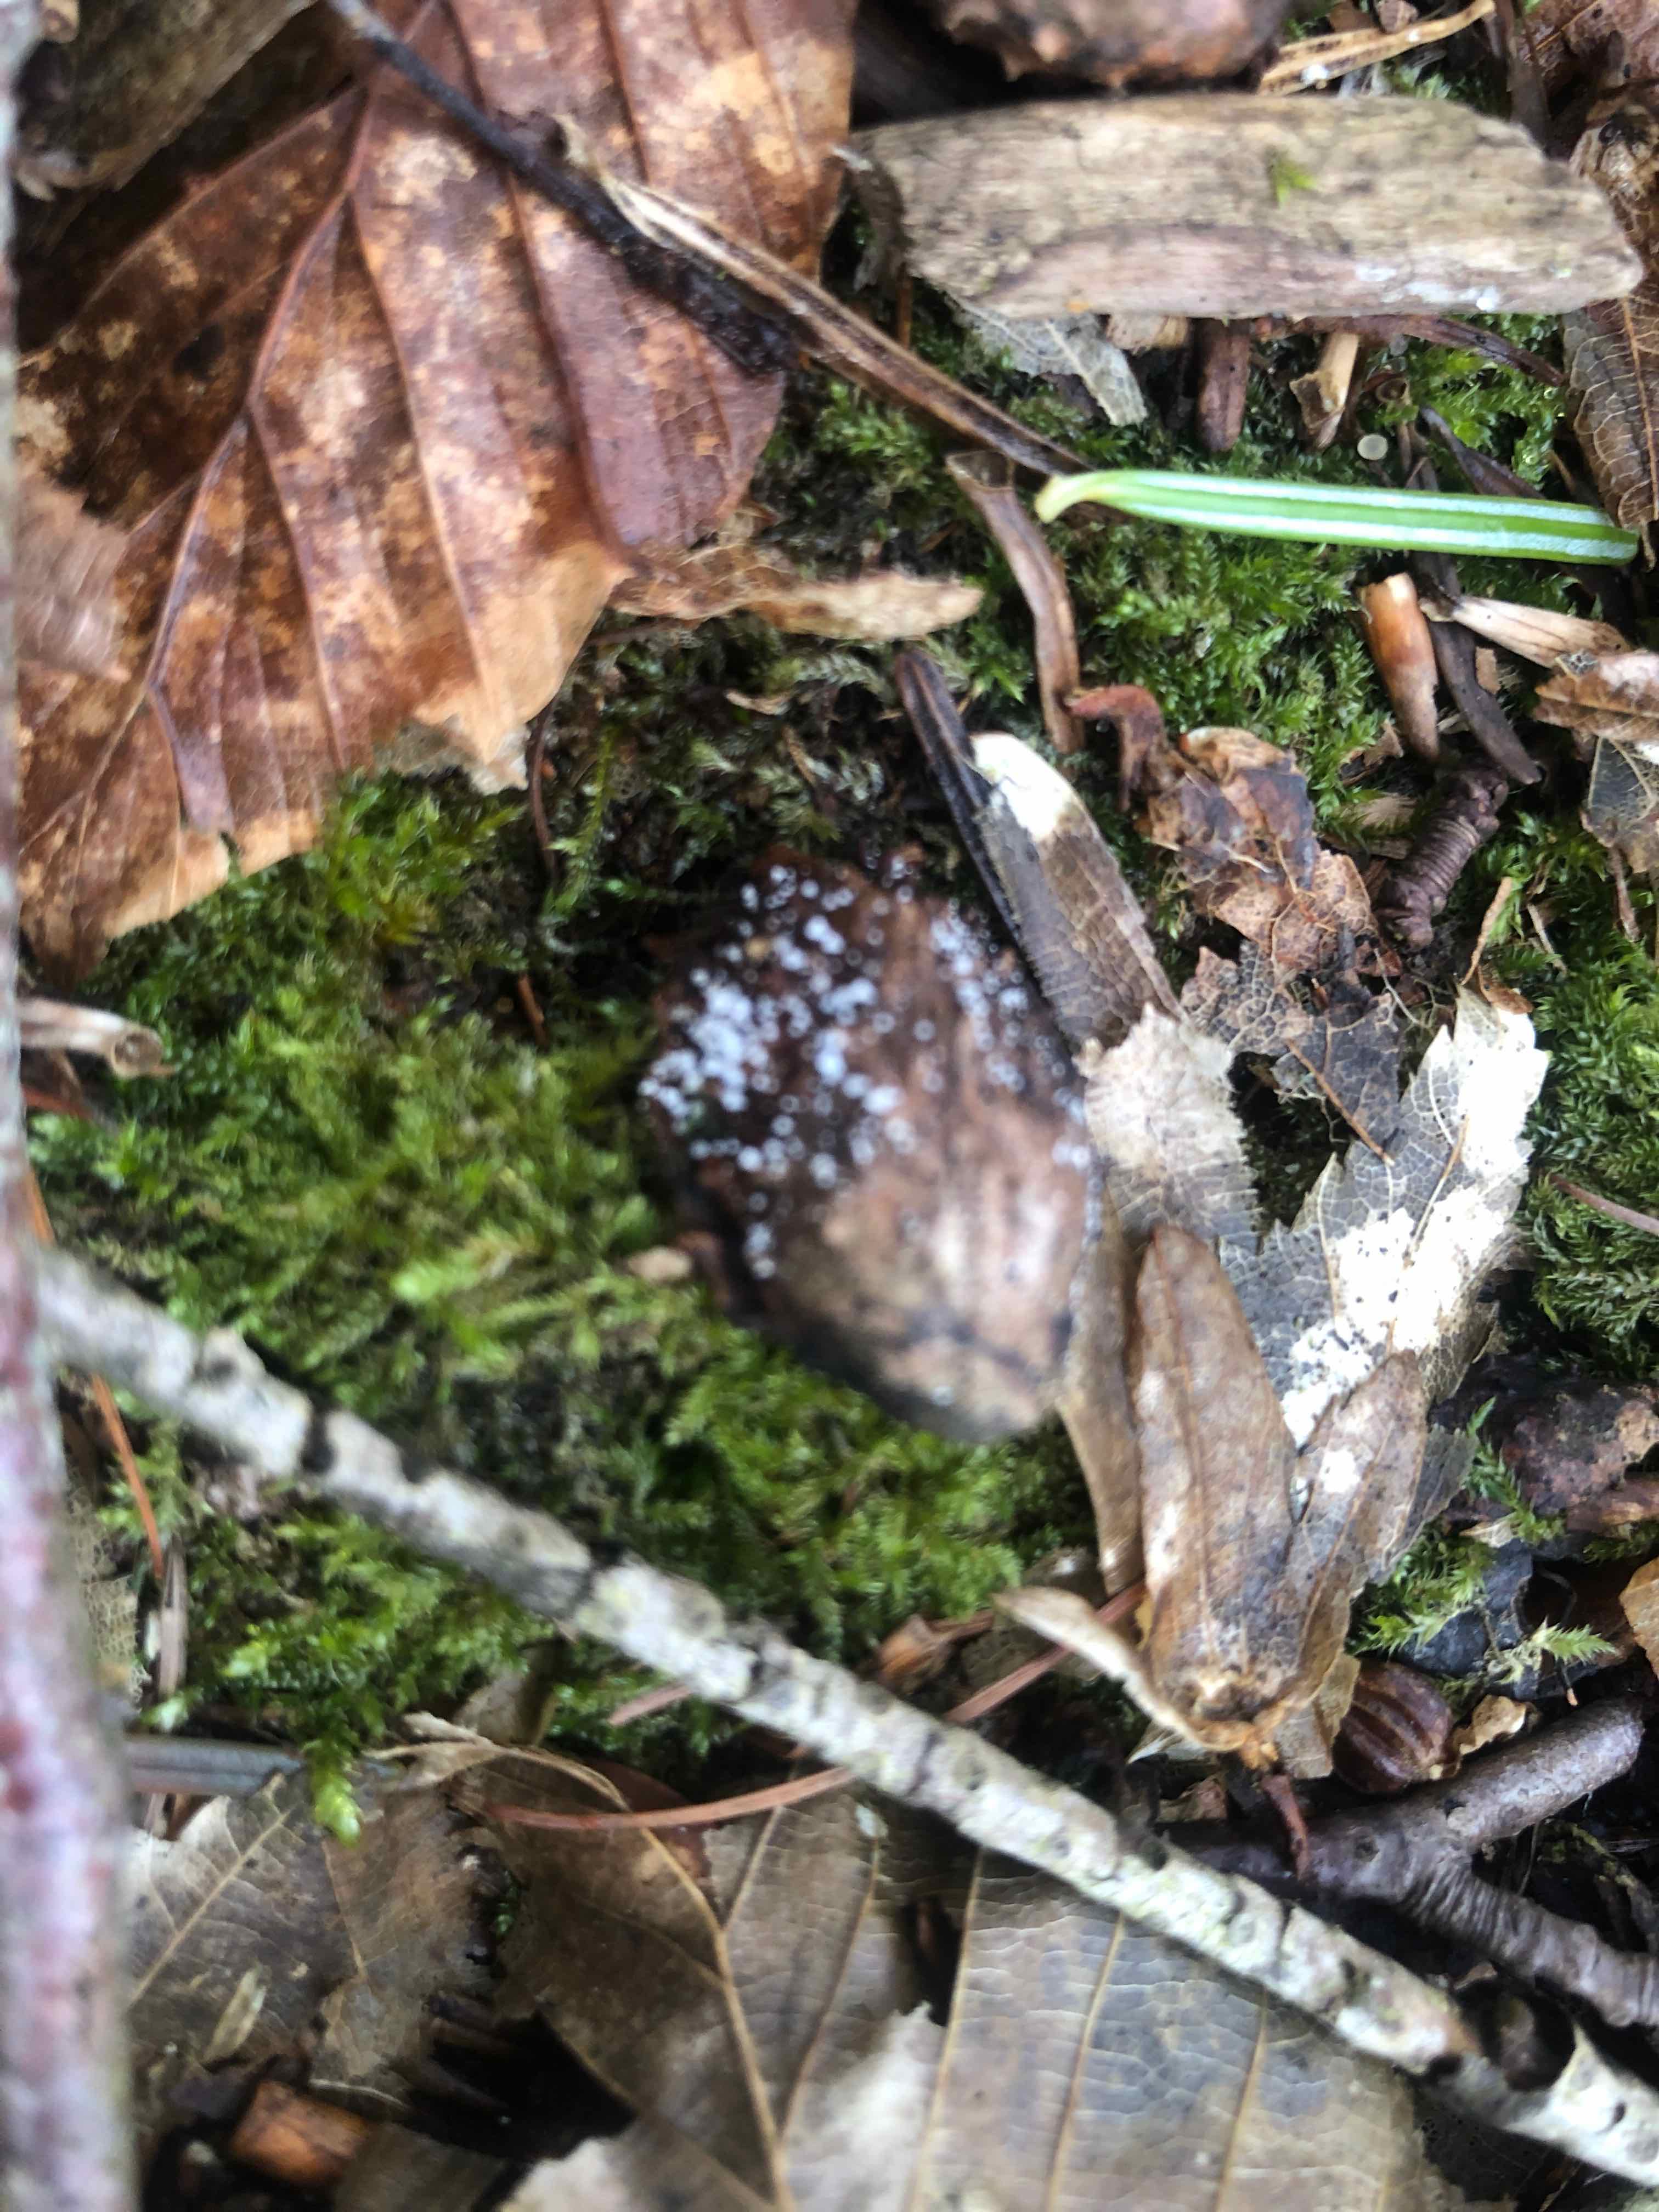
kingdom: Fungi
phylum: Ascomycota
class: Leotiomycetes
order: Helotiales
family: Lachnaceae
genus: Lachnum
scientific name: Lachnum virgineum
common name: jomfru-frynseskive
